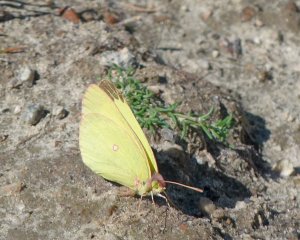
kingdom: Animalia
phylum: Arthropoda
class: Insecta
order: Lepidoptera
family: Pieridae
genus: Colias
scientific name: Colias interior
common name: Pink-edged Sulphur
